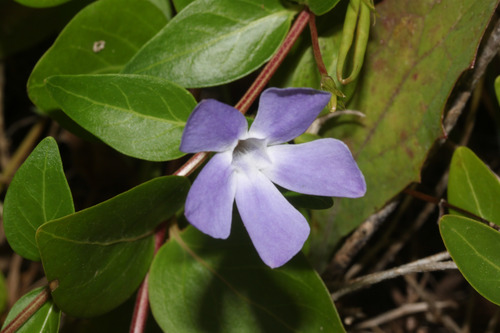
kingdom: Plantae
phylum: Tracheophyta
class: Magnoliopsida
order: Gentianales
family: Apocynaceae
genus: Vinca
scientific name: Vinca difformis
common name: Intermediate periwinkle
